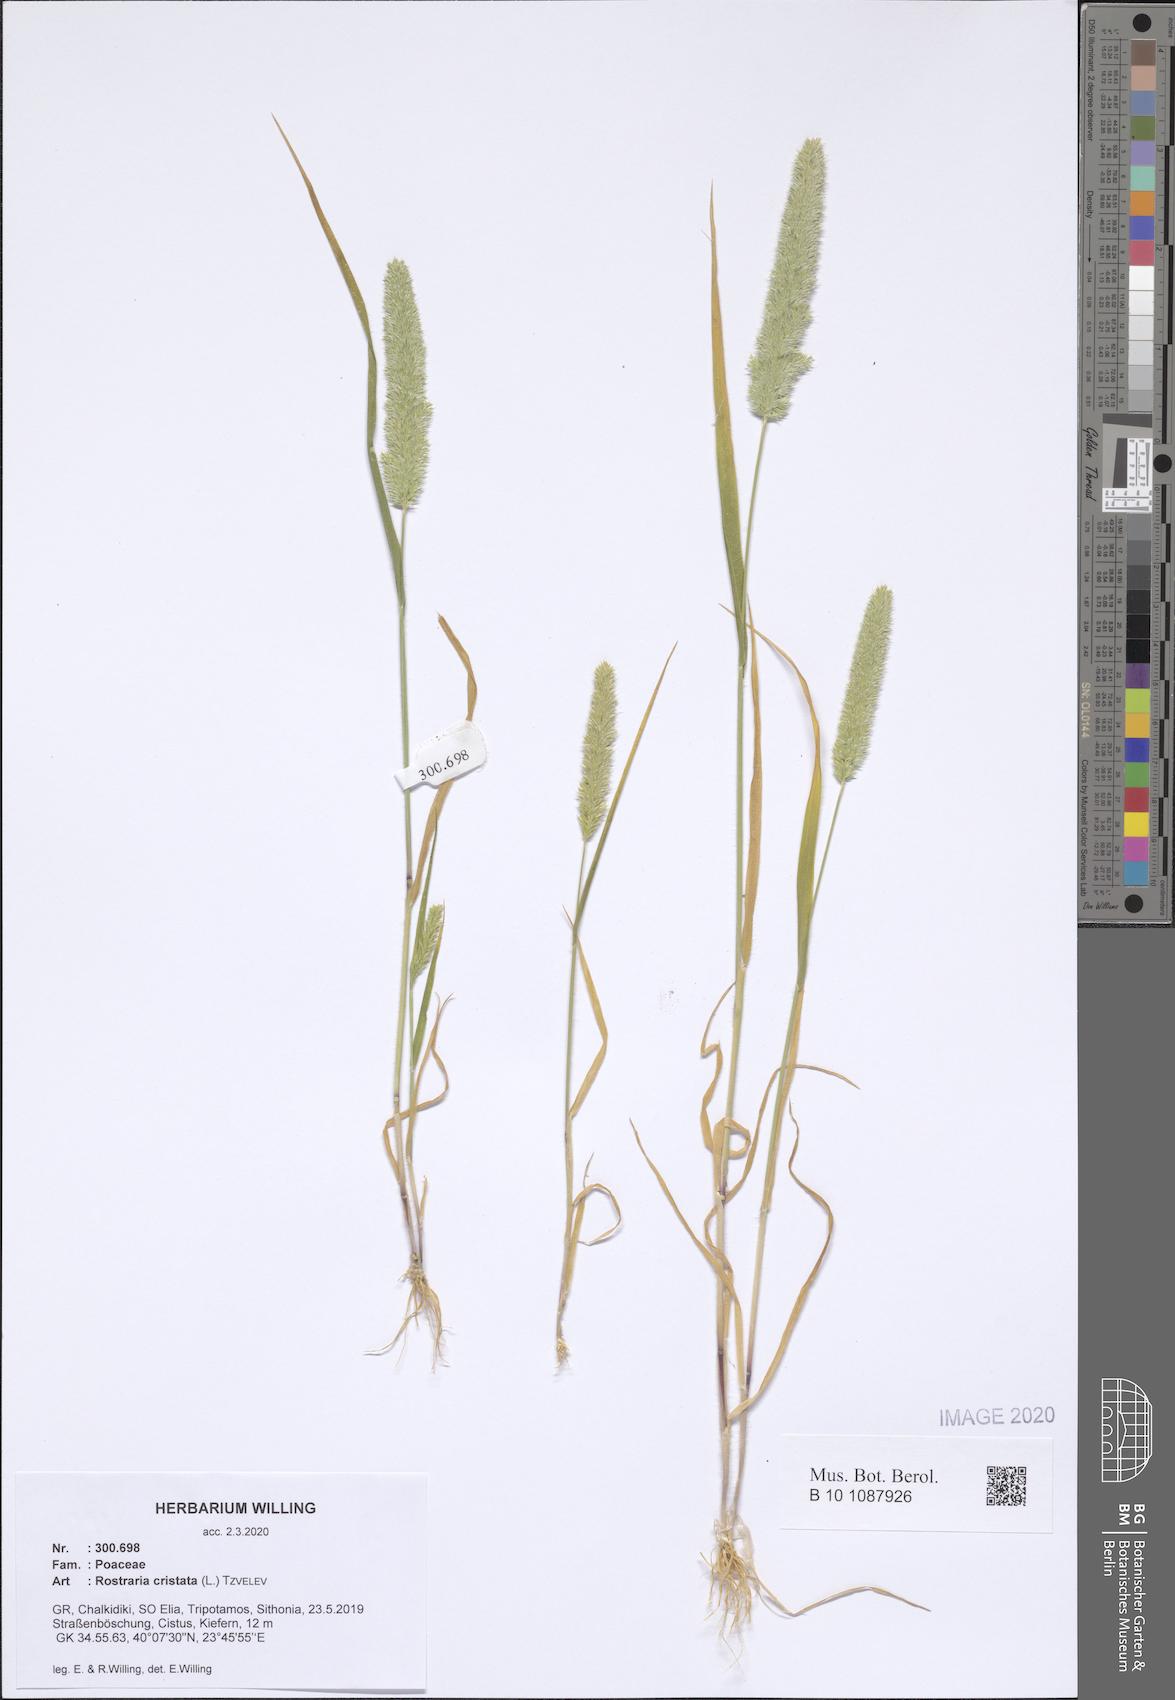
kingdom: Plantae
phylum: Tracheophyta
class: Liliopsida
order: Poales
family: Poaceae
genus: Rostraria
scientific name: Rostraria cristata
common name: Mediterranean hair-grass
